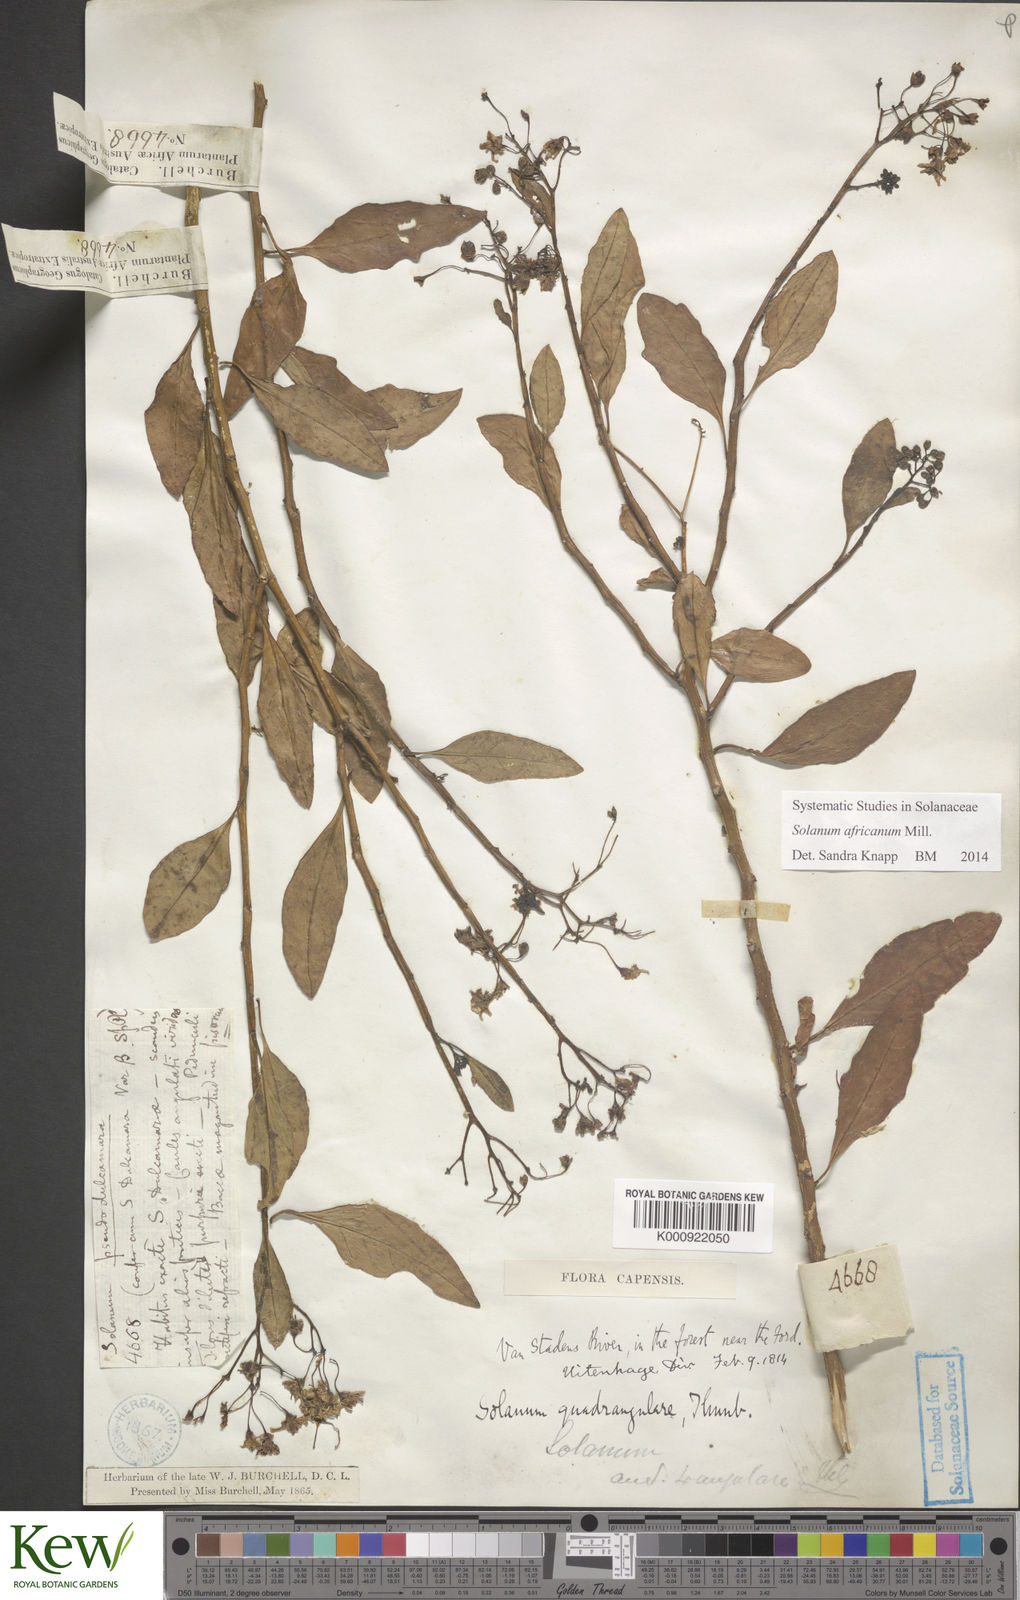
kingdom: Plantae
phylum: Tracheophyta
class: Magnoliopsida
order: Solanales
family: Solanaceae
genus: Solanum
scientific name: Solanum africanum
